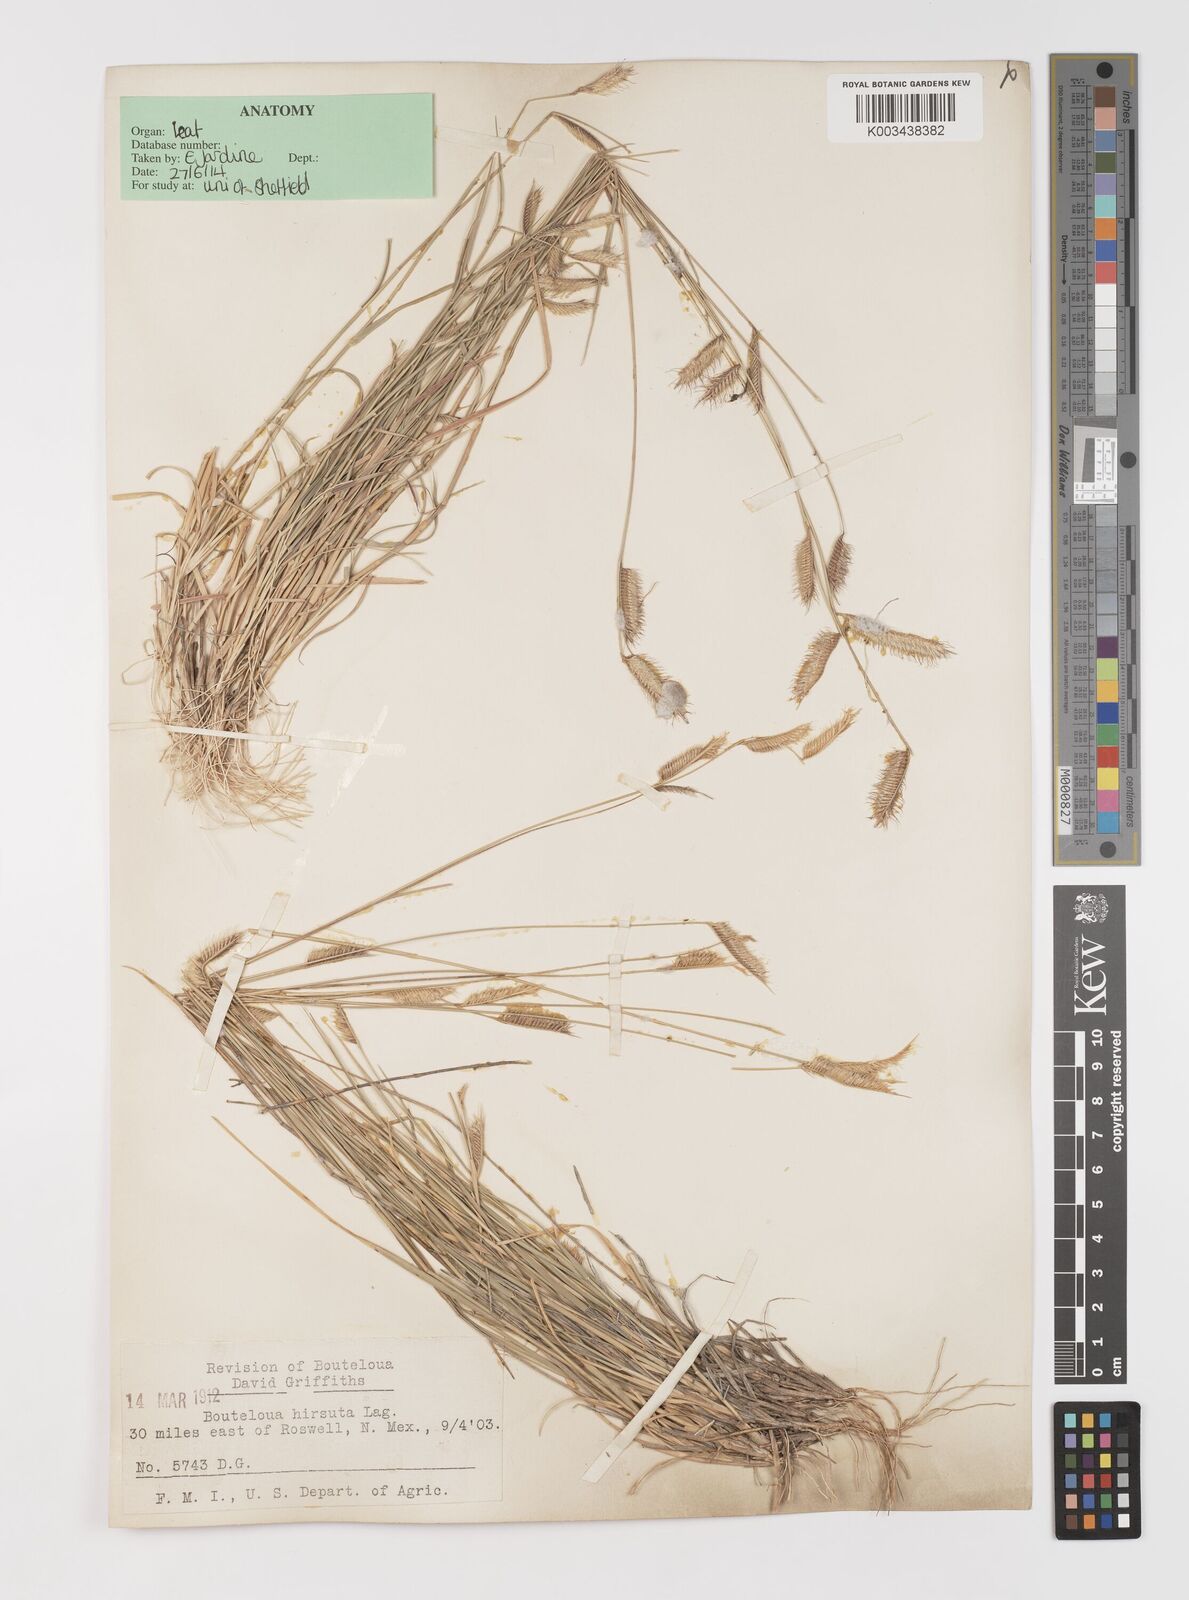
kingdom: Plantae
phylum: Tracheophyta
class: Liliopsida
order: Poales
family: Poaceae
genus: Bouteloua
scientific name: Bouteloua hirsuta
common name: Hairy grama
